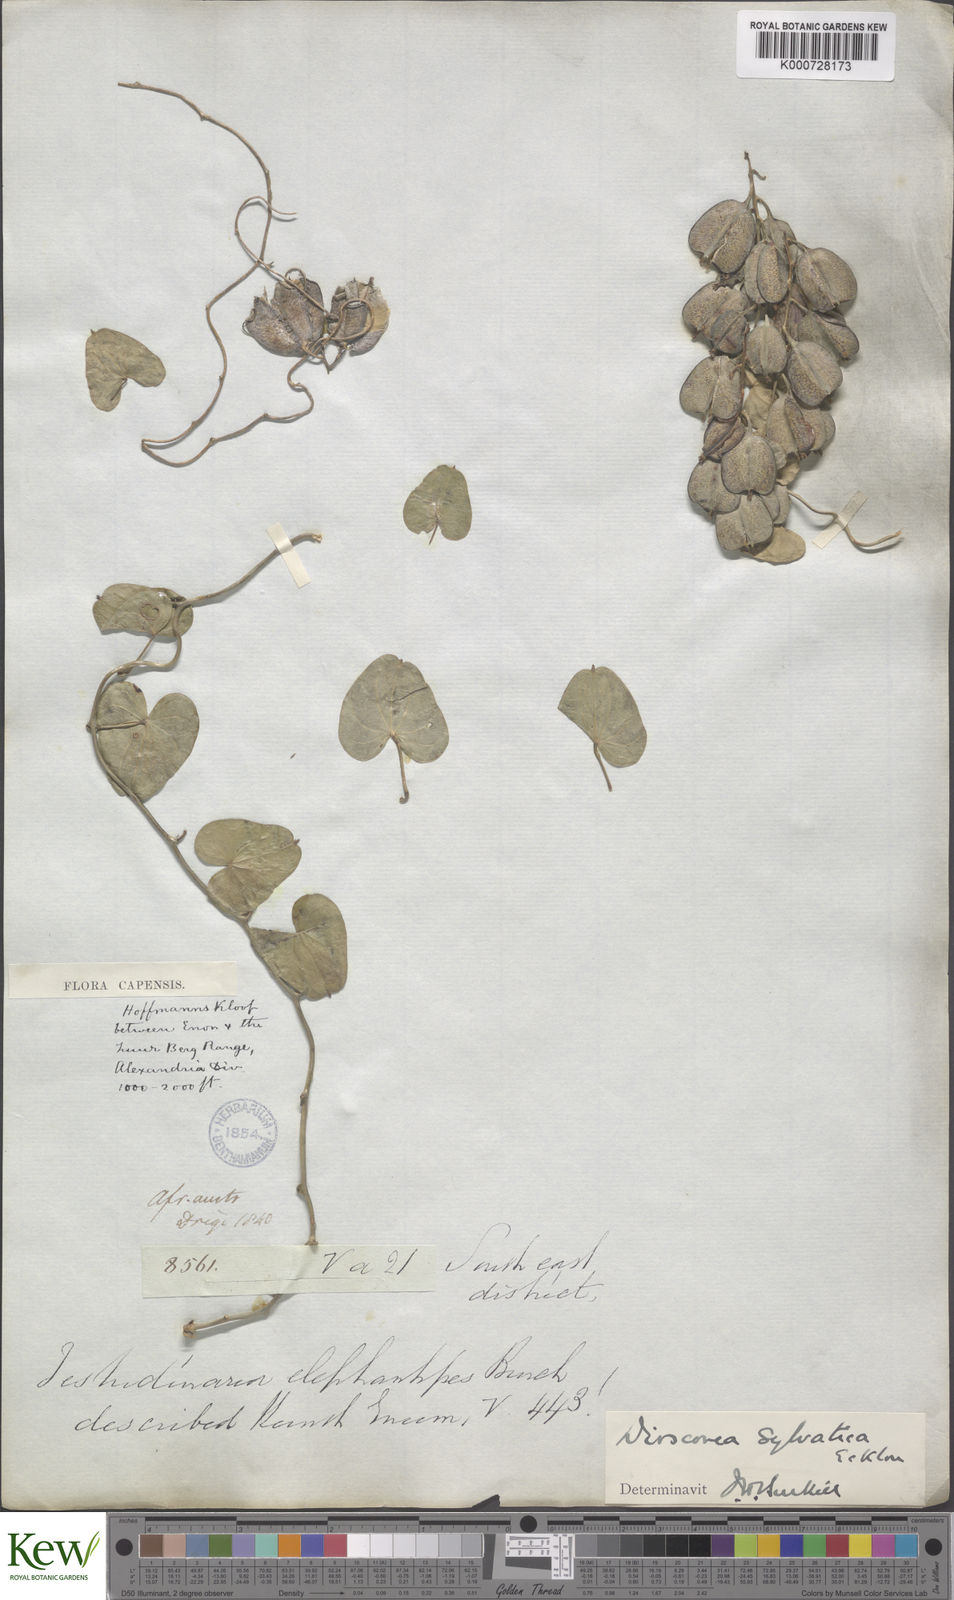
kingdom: Plantae
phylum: Tracheophyta
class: Liliopsida
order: Dioscoreales
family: Dioscoreaceae
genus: Dioscorea
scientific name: Dioscorea sylvatica
